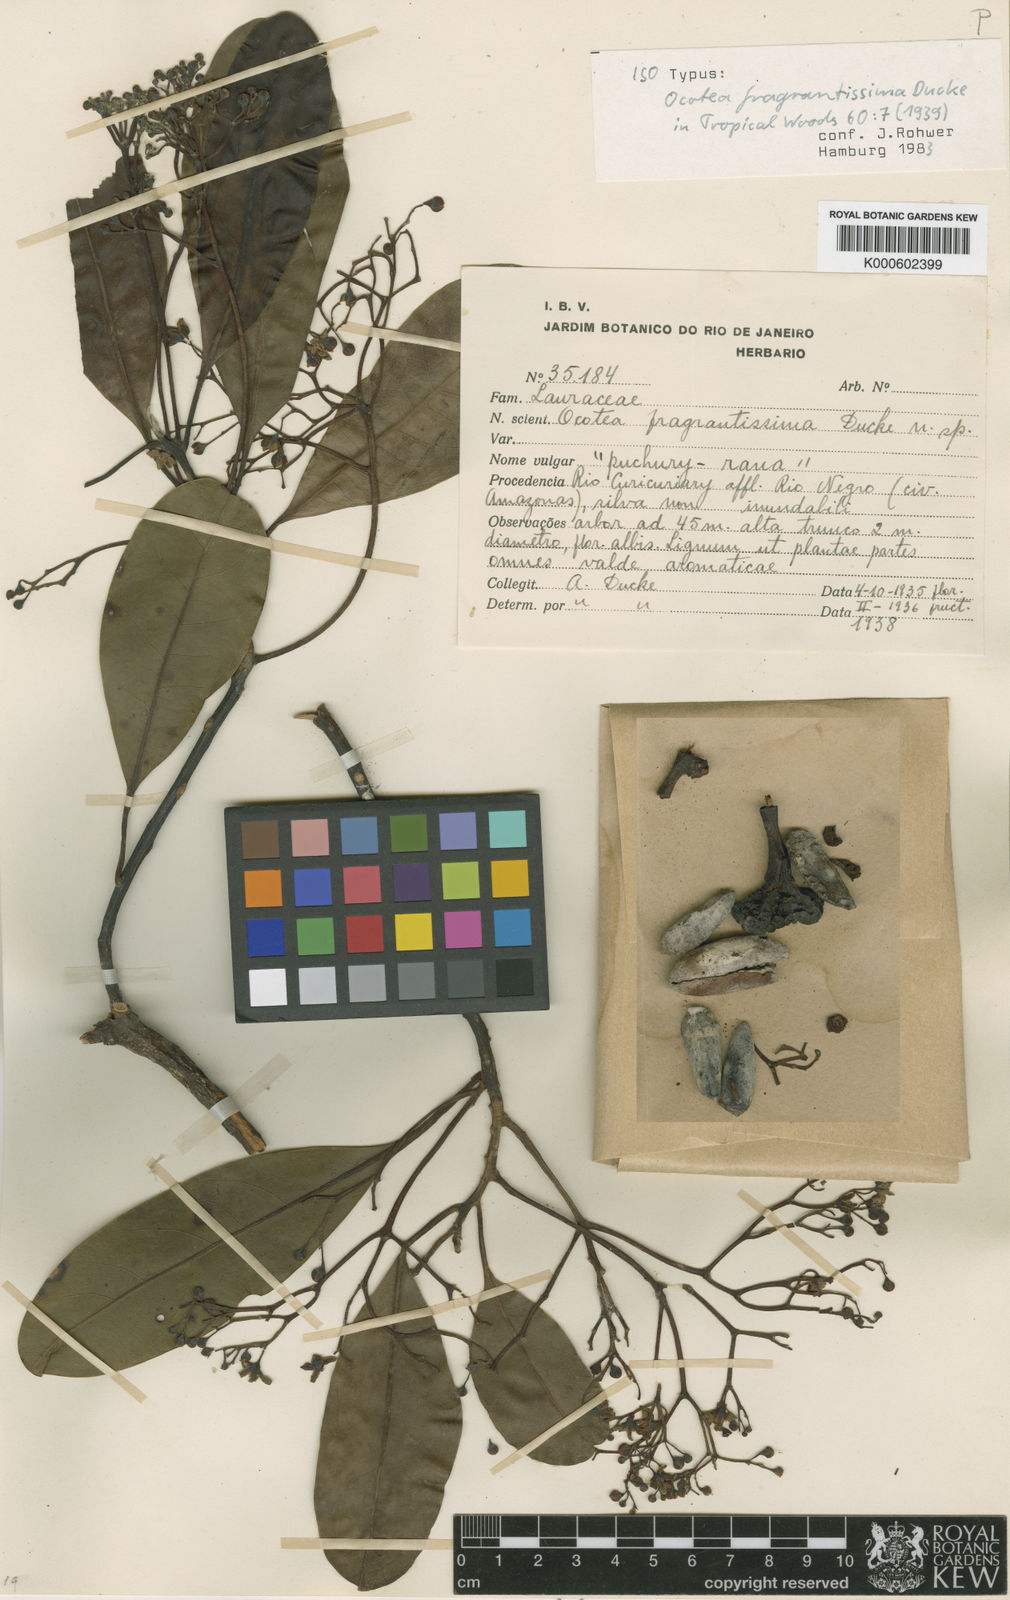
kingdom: Plantae
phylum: Tracheophyta
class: Magnoliopsida
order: Laurales
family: Lauraceae
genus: Mespilodaphne
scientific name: Mespilodaphne fragrantissima
